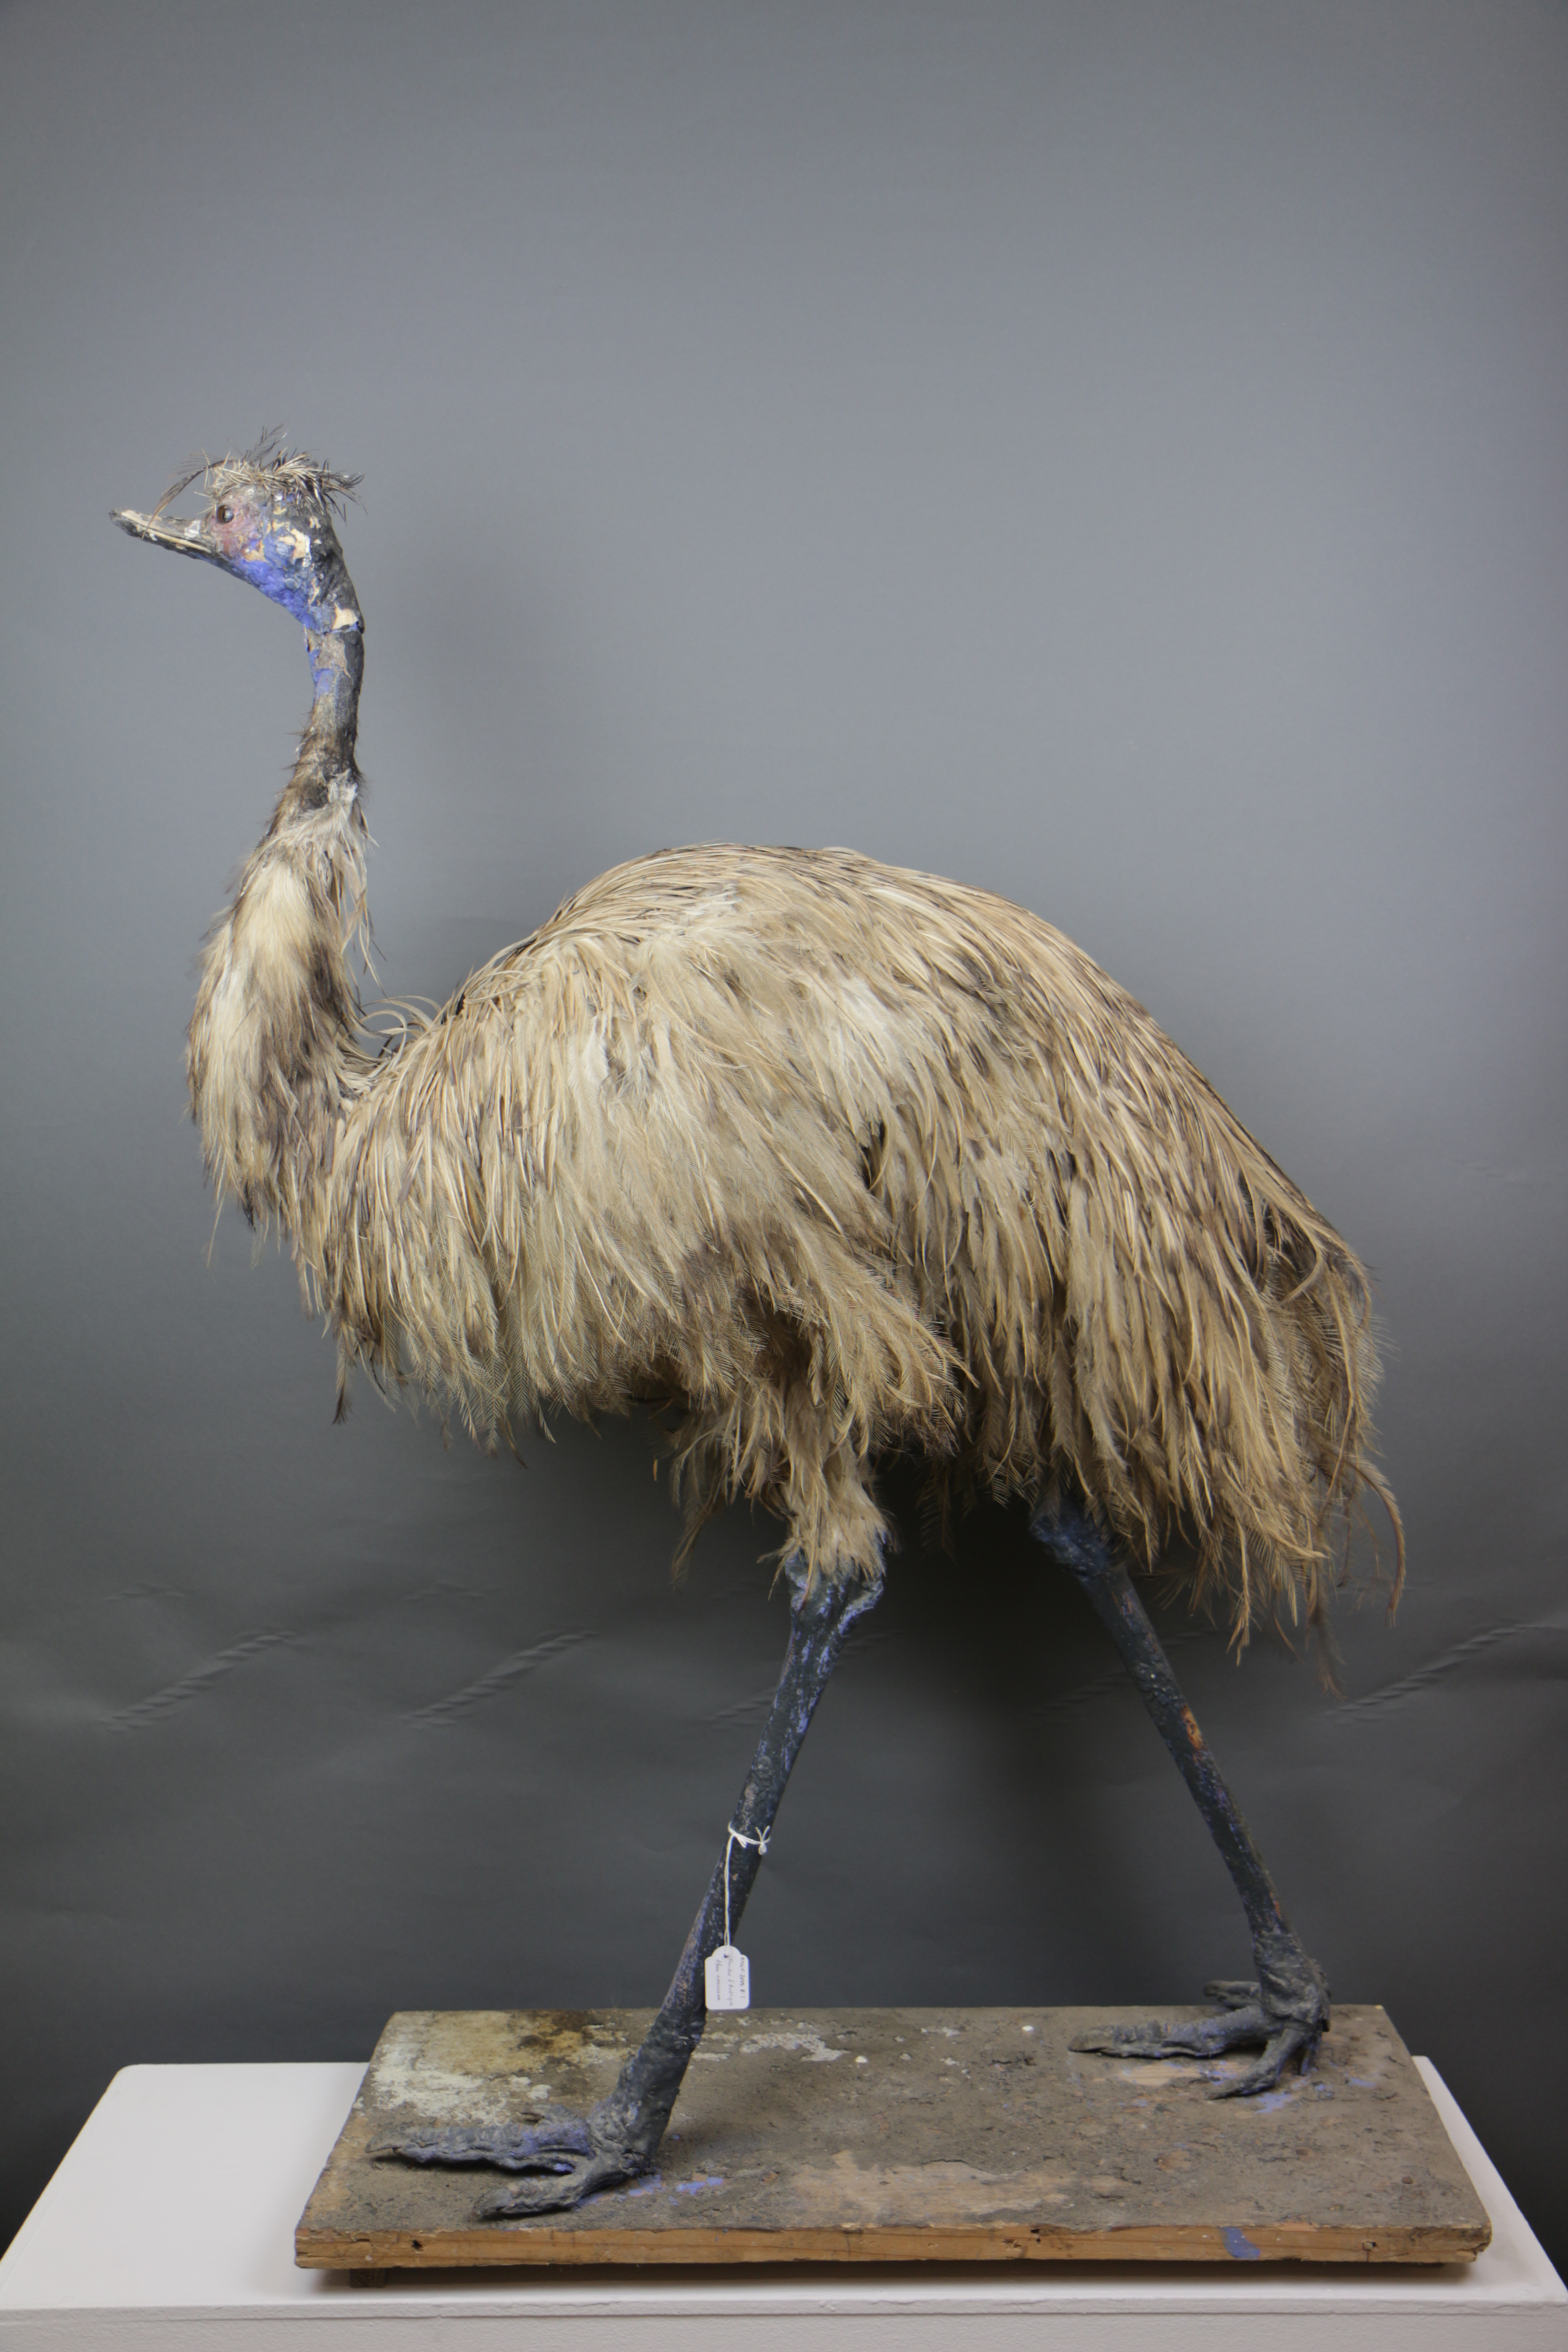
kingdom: Animalia
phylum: Chordata
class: Aves
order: Rheiformes
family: Rheidae
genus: Rhea
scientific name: Rhea americana
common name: Greater rhea
